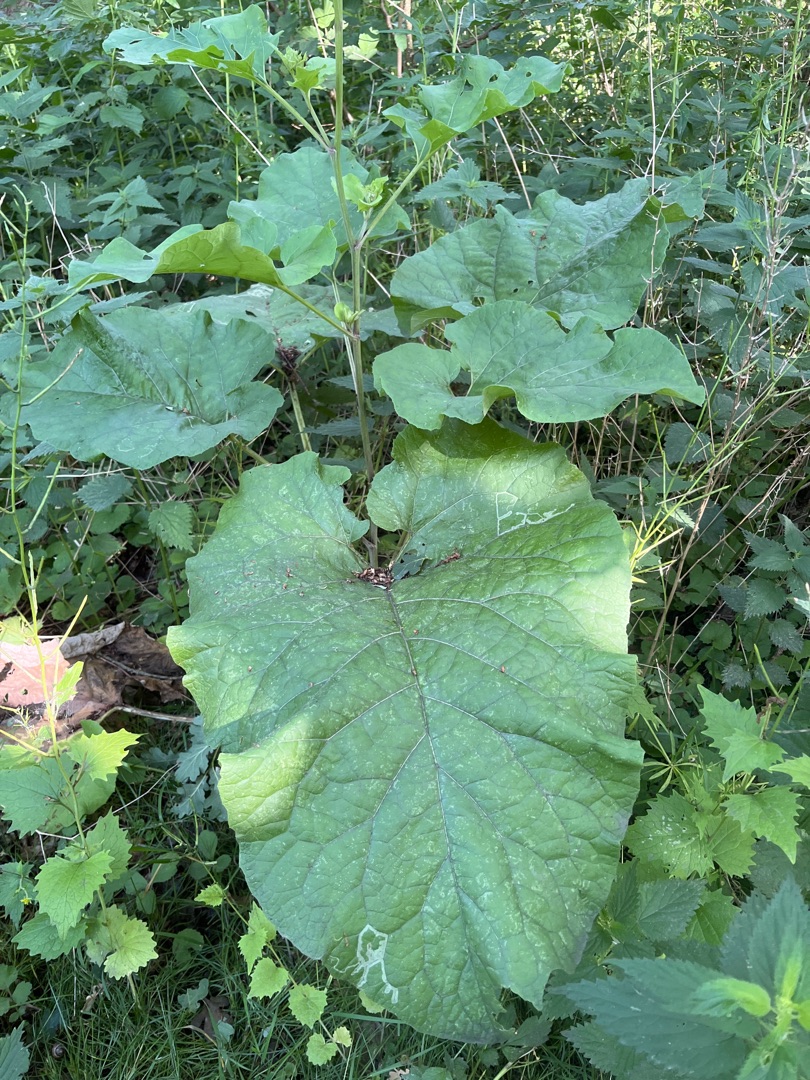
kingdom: Plantae
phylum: Tracheophyta
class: Magnoliopsida
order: Asterales
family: Asteraceae
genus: Arctium
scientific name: Arctium
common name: Burreslægten
